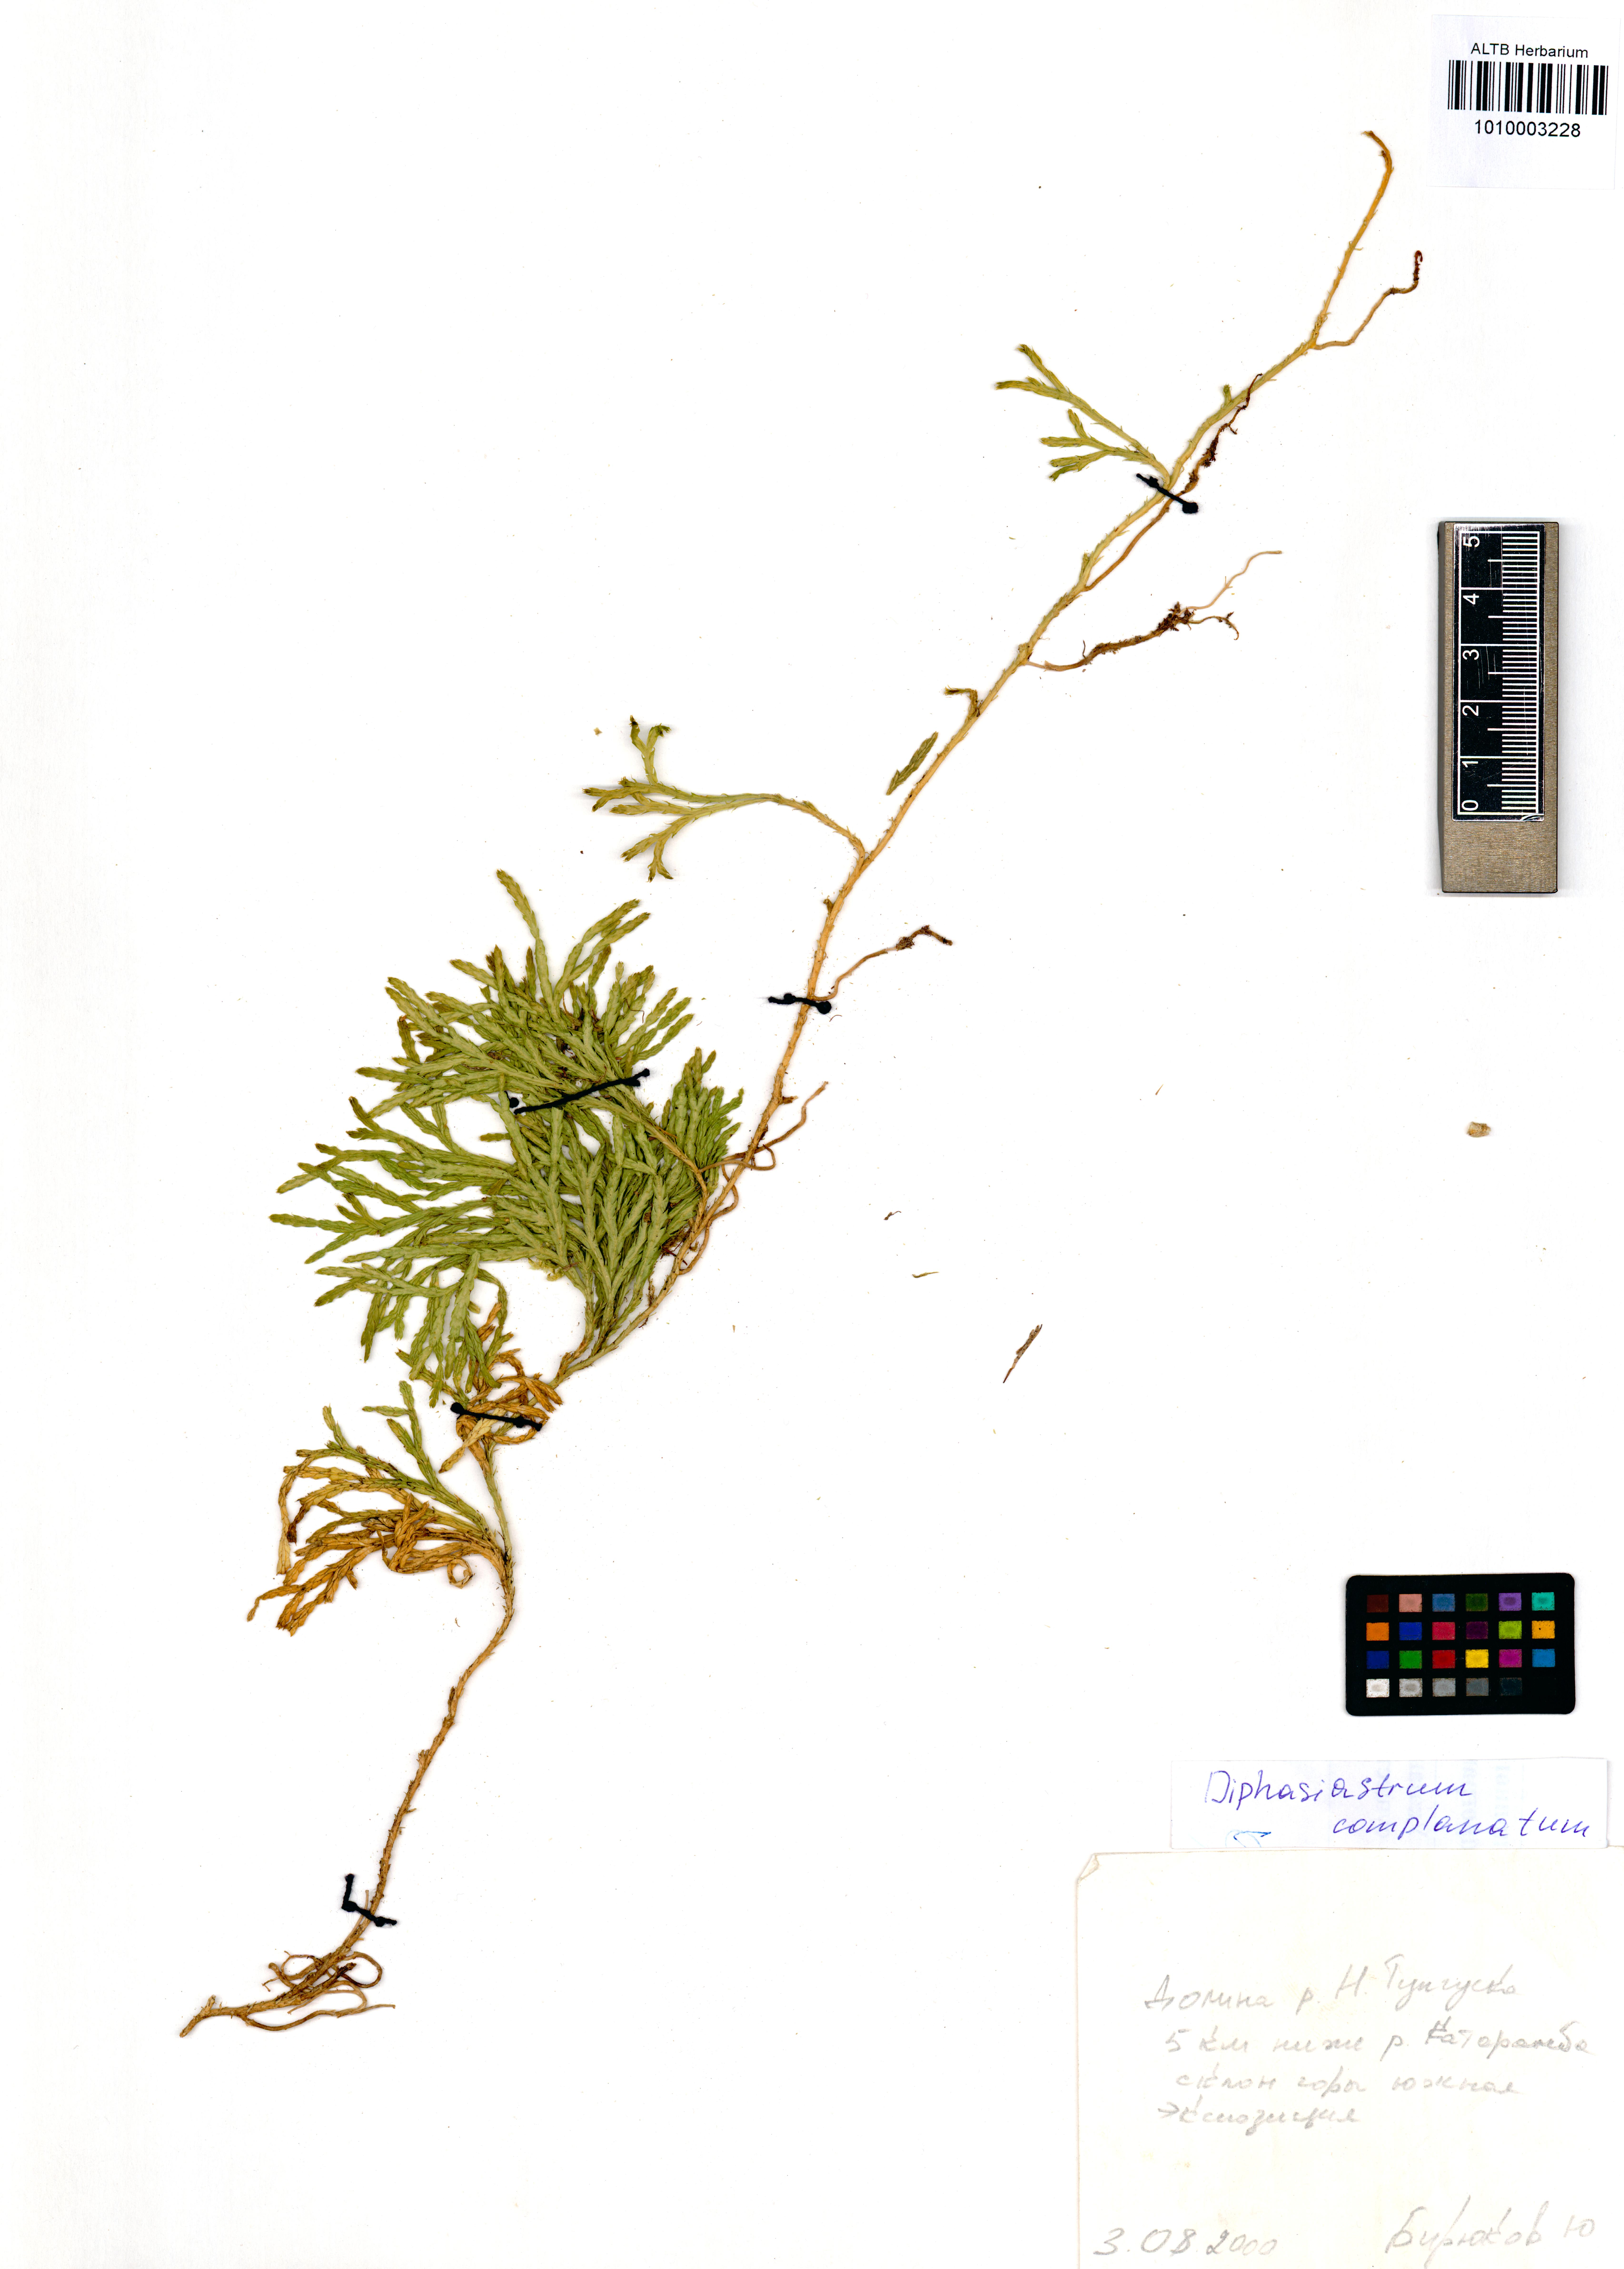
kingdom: Plantae
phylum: Tracheophyta
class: Lycopodiopsida
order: Lycopodiales
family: Lycopodiaceae
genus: Diphasiastrum
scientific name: Diphasiastrum complanatum
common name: Northern running-pine
